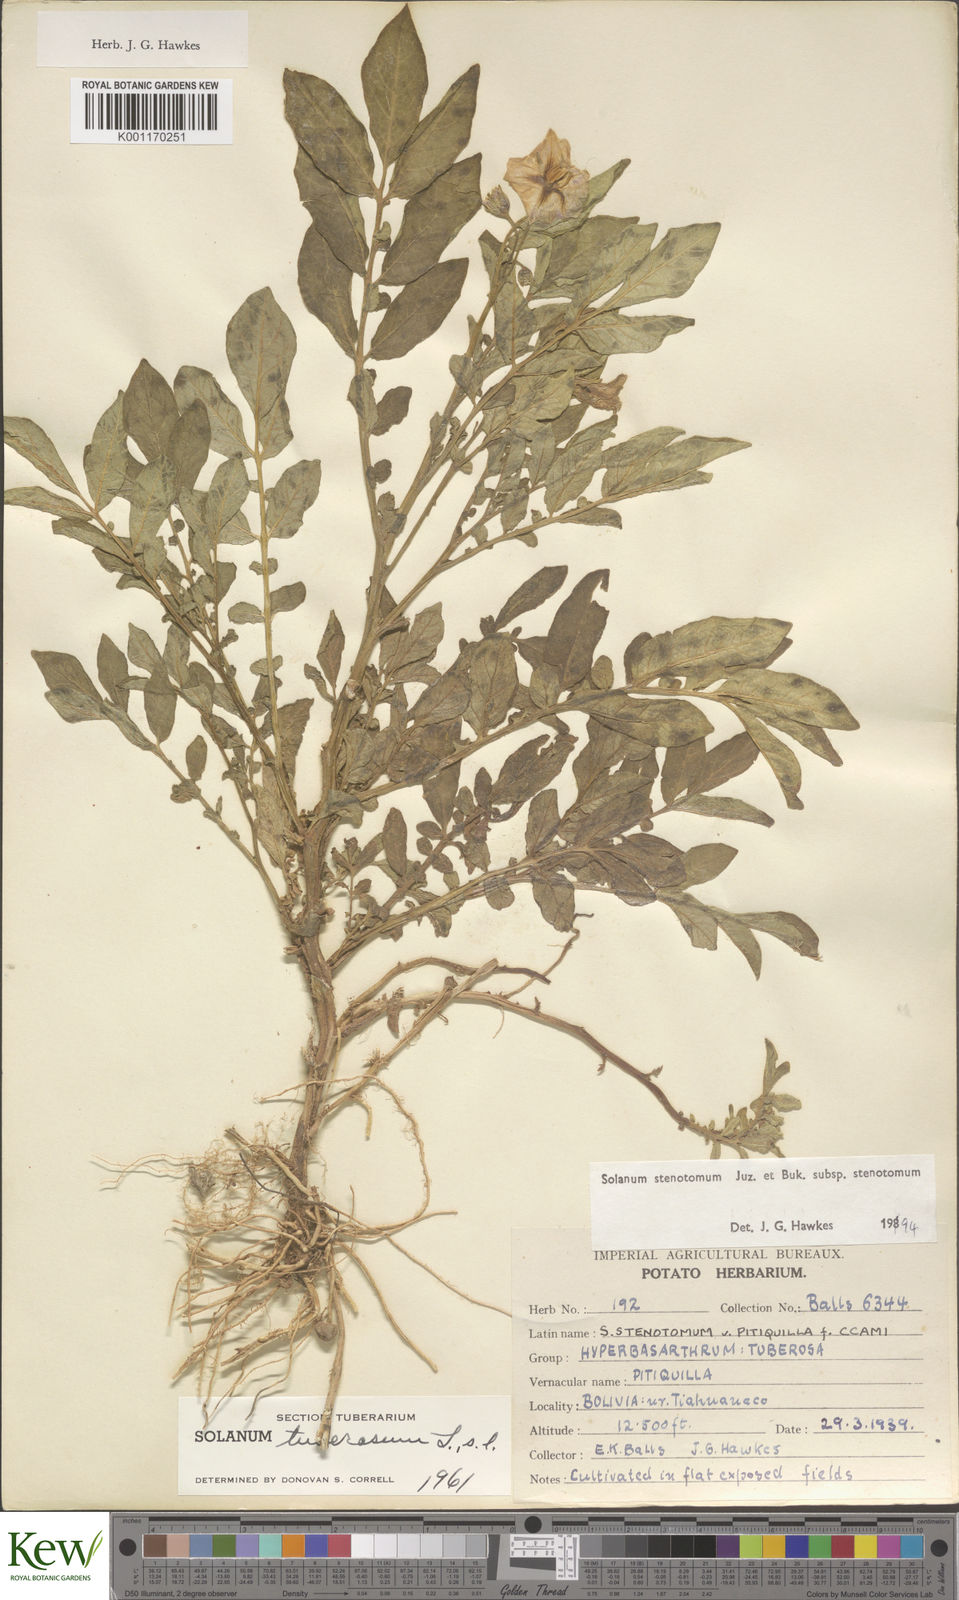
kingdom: Plantae
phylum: Tracheophyta
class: Magnoliopsida
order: Solanales
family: Solanaceae
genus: Solanum
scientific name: Solanum tuberosum
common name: Potato
